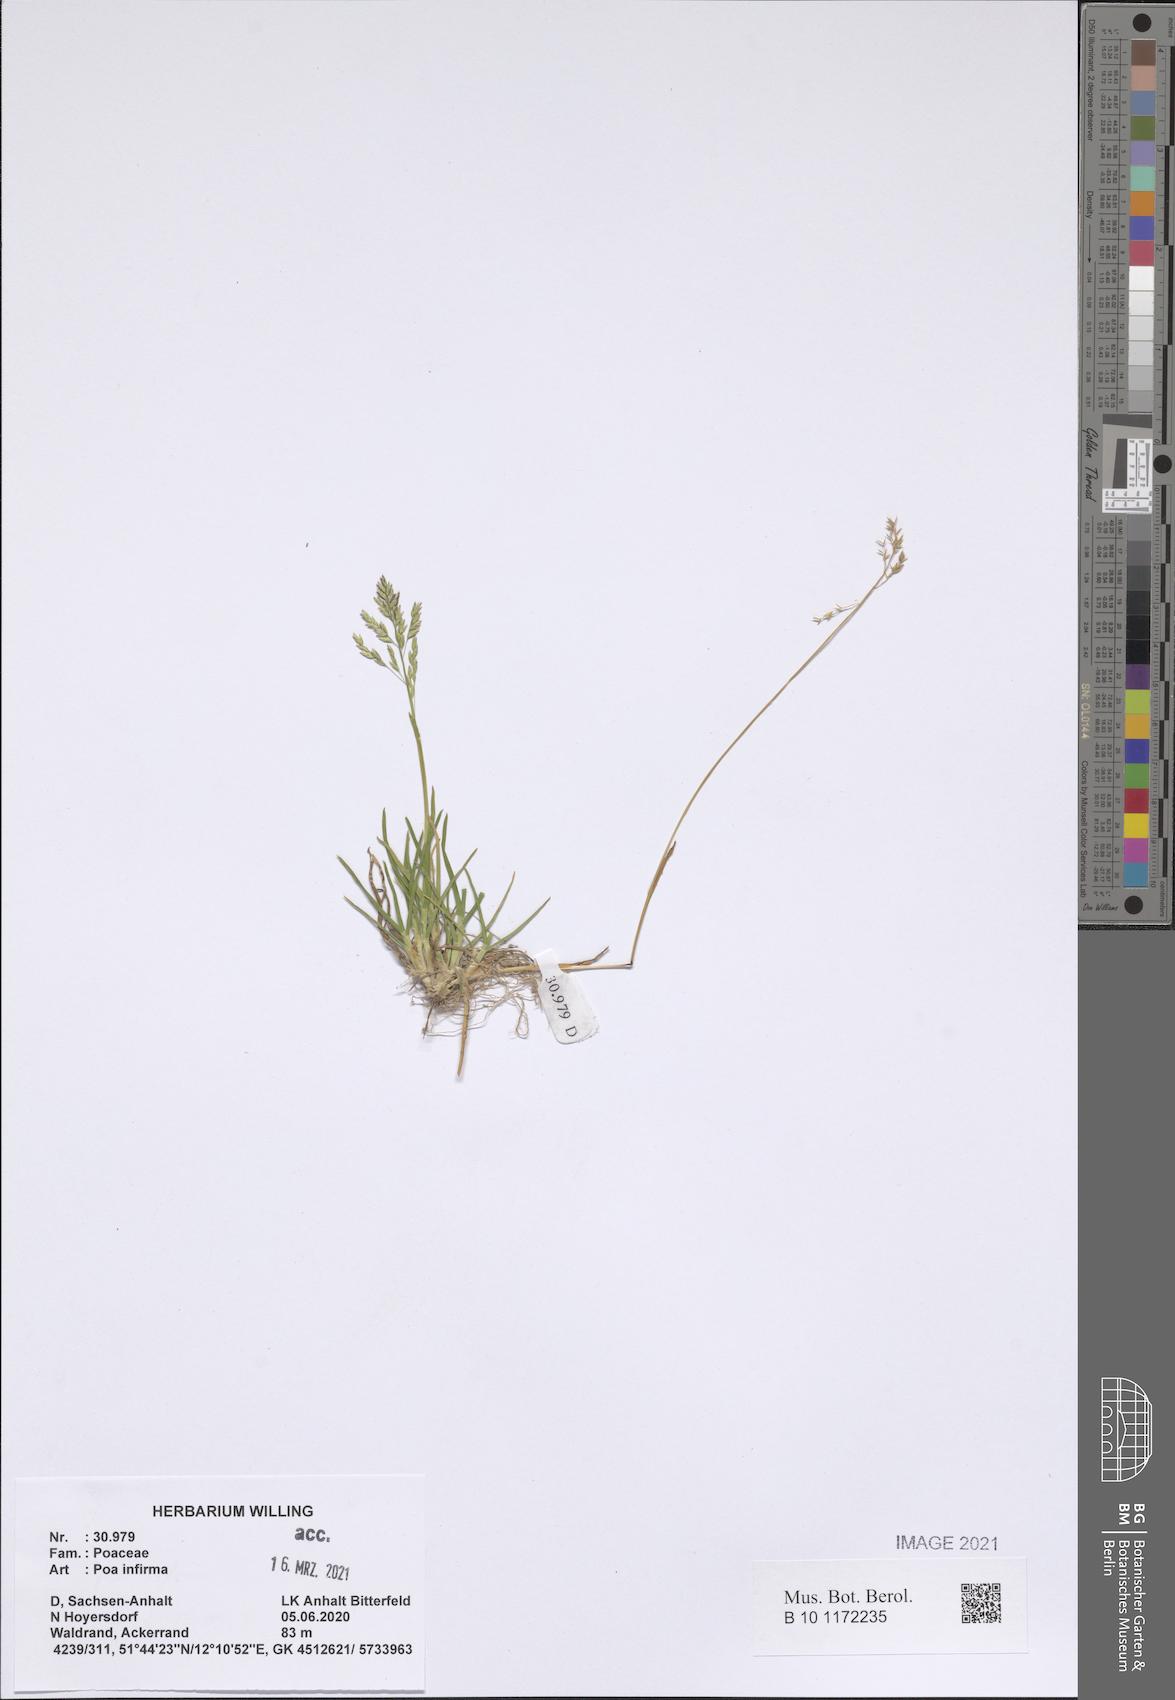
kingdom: Plantae
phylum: Tracheophyta
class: Liliopsida
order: Poales
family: Poaceae
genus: Poa
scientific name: Poa infirma
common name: Weak bluegrass
